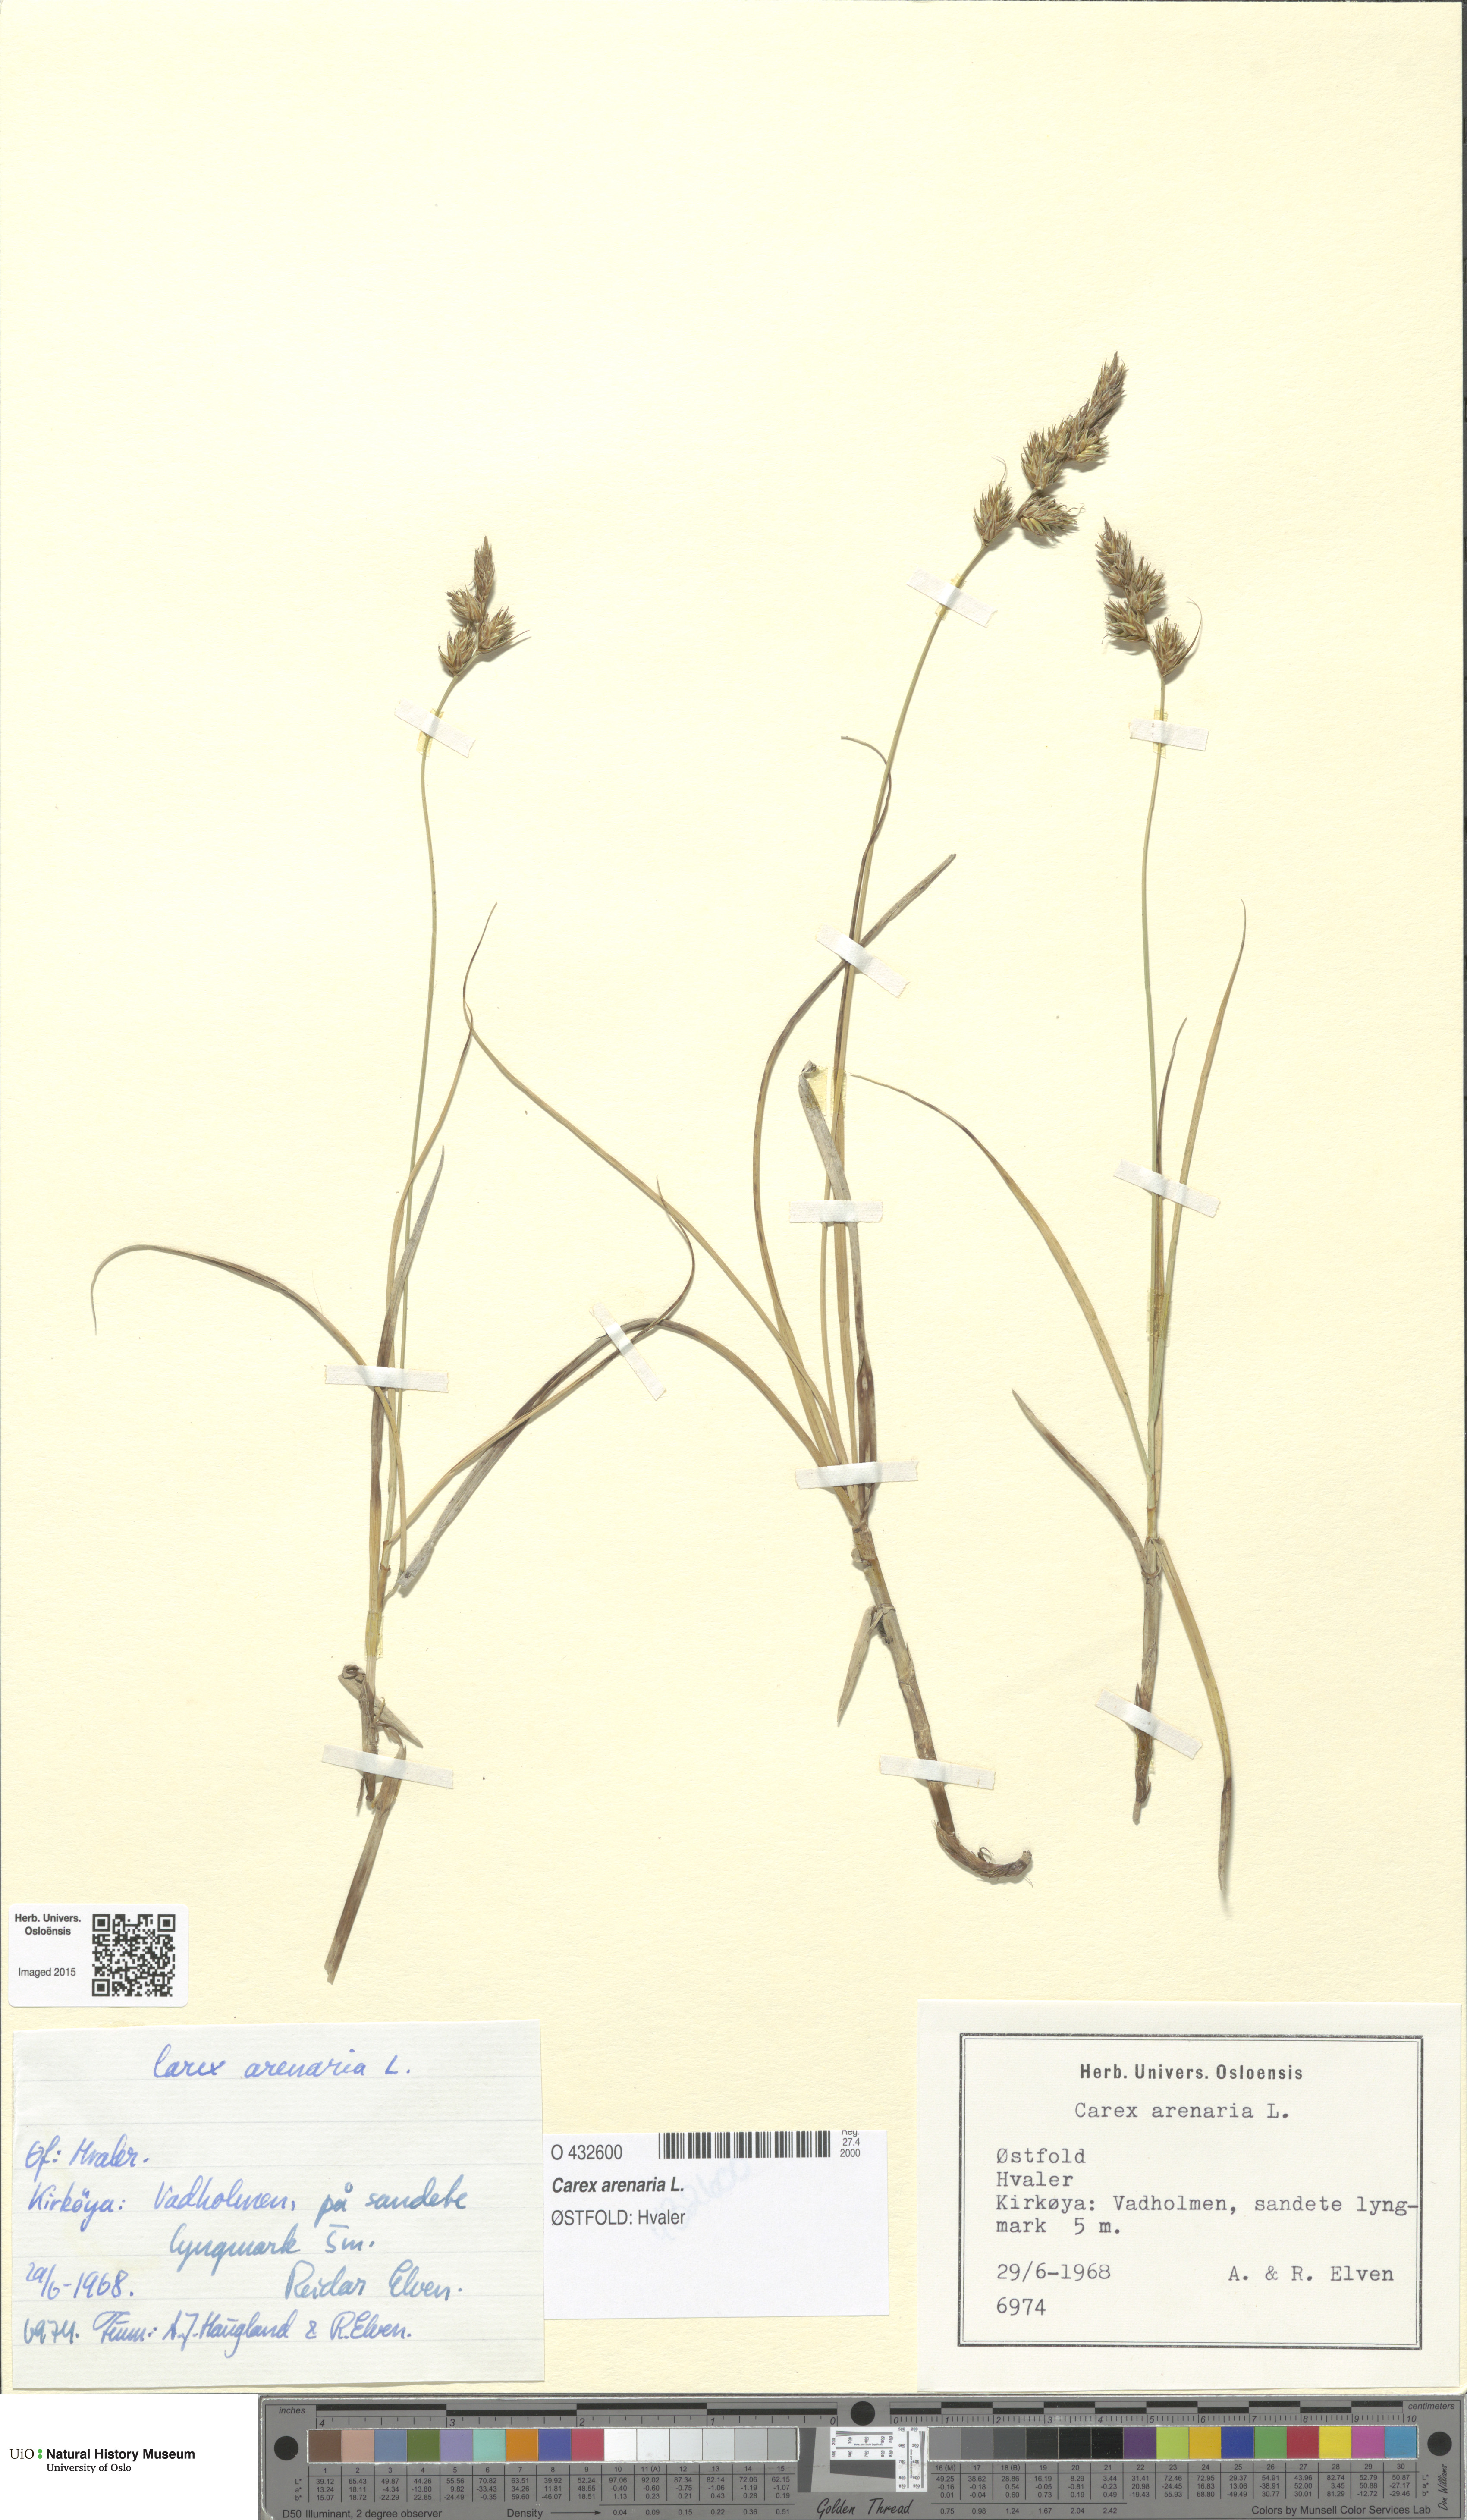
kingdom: Plantae
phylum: Tracheophyta
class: Liliopsida
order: Poales
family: Cyperaceae
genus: Carex
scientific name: Carex arenaria
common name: Sand sedge
